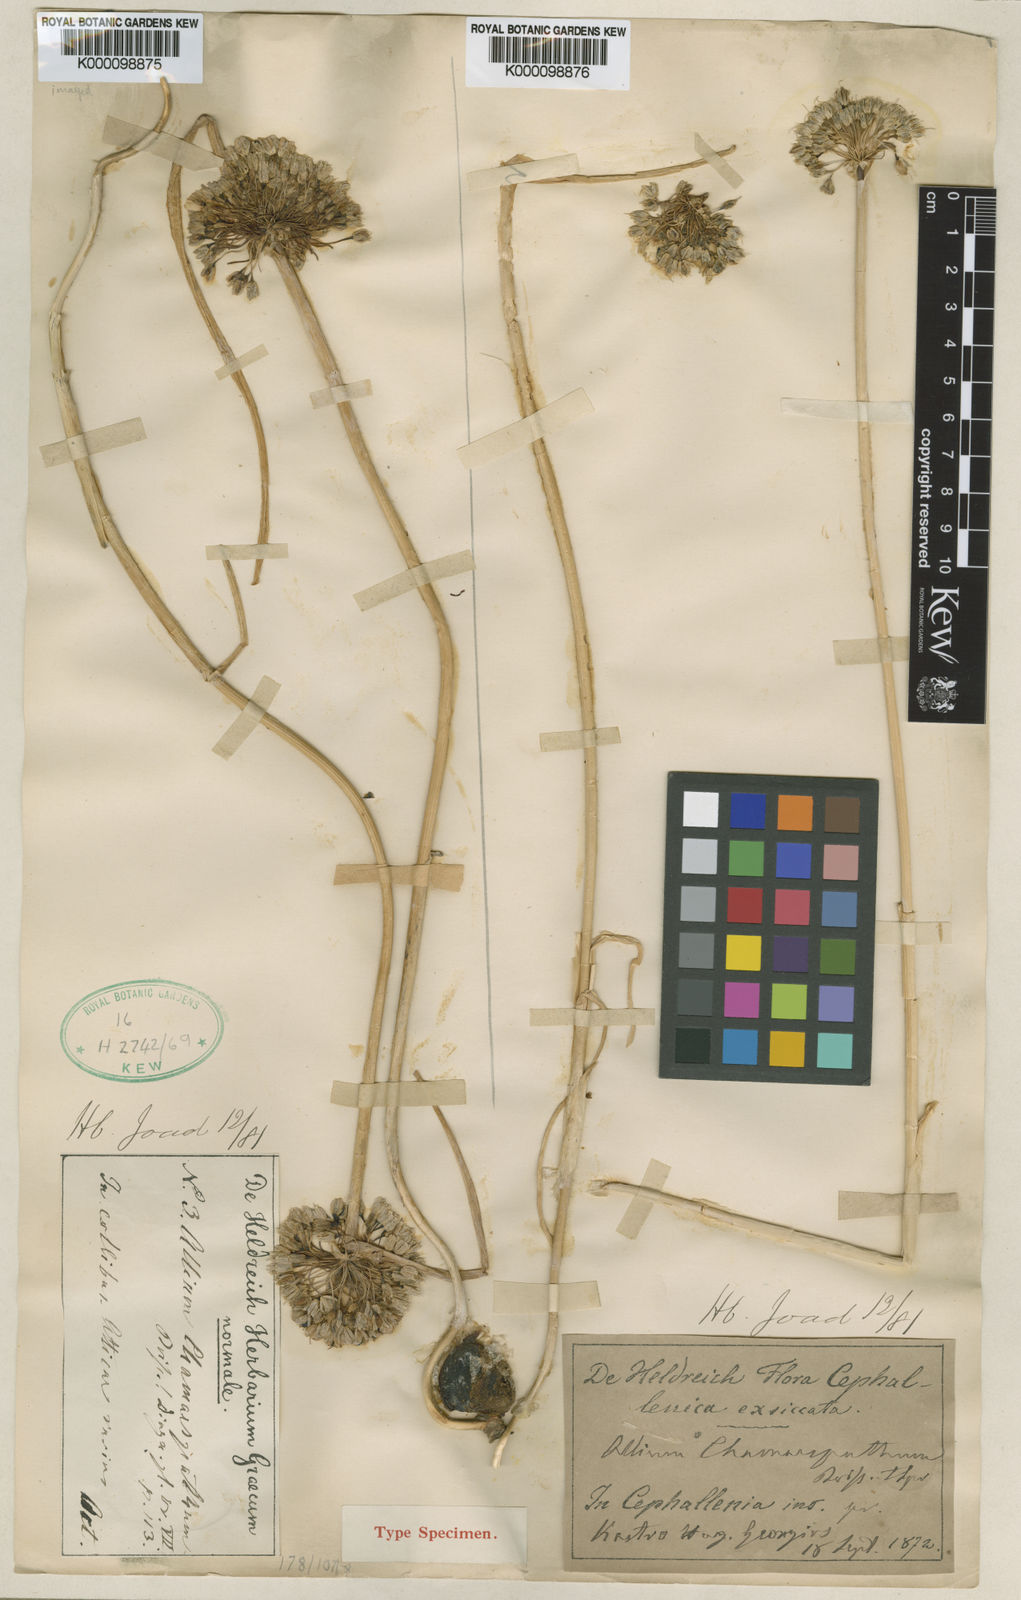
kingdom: Plantae
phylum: Tracheophyta
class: Liliopsida
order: Asparagales
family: Amaryllidaceae
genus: Allium
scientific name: Allium chamaespathum
